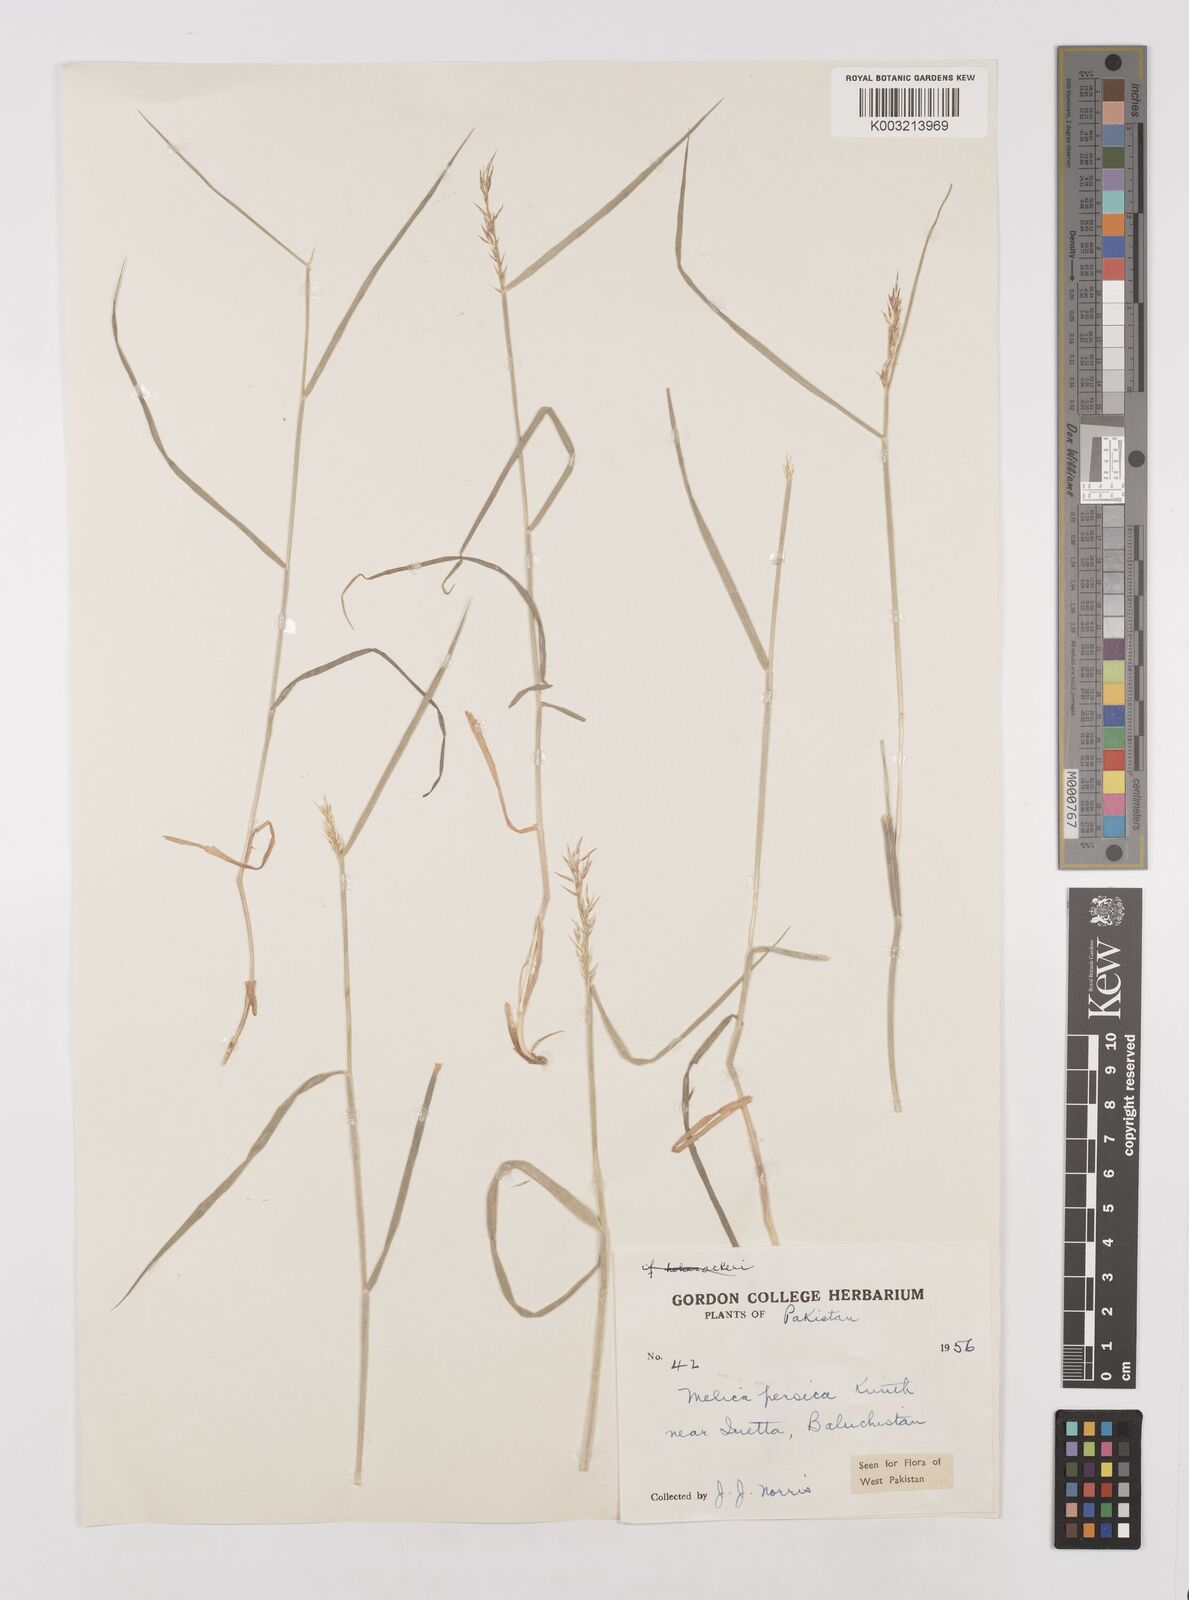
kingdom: Plantae
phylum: Tracheophyta
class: Liliopsida
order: Poales
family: Poaceae
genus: Melica
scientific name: Melica persica
